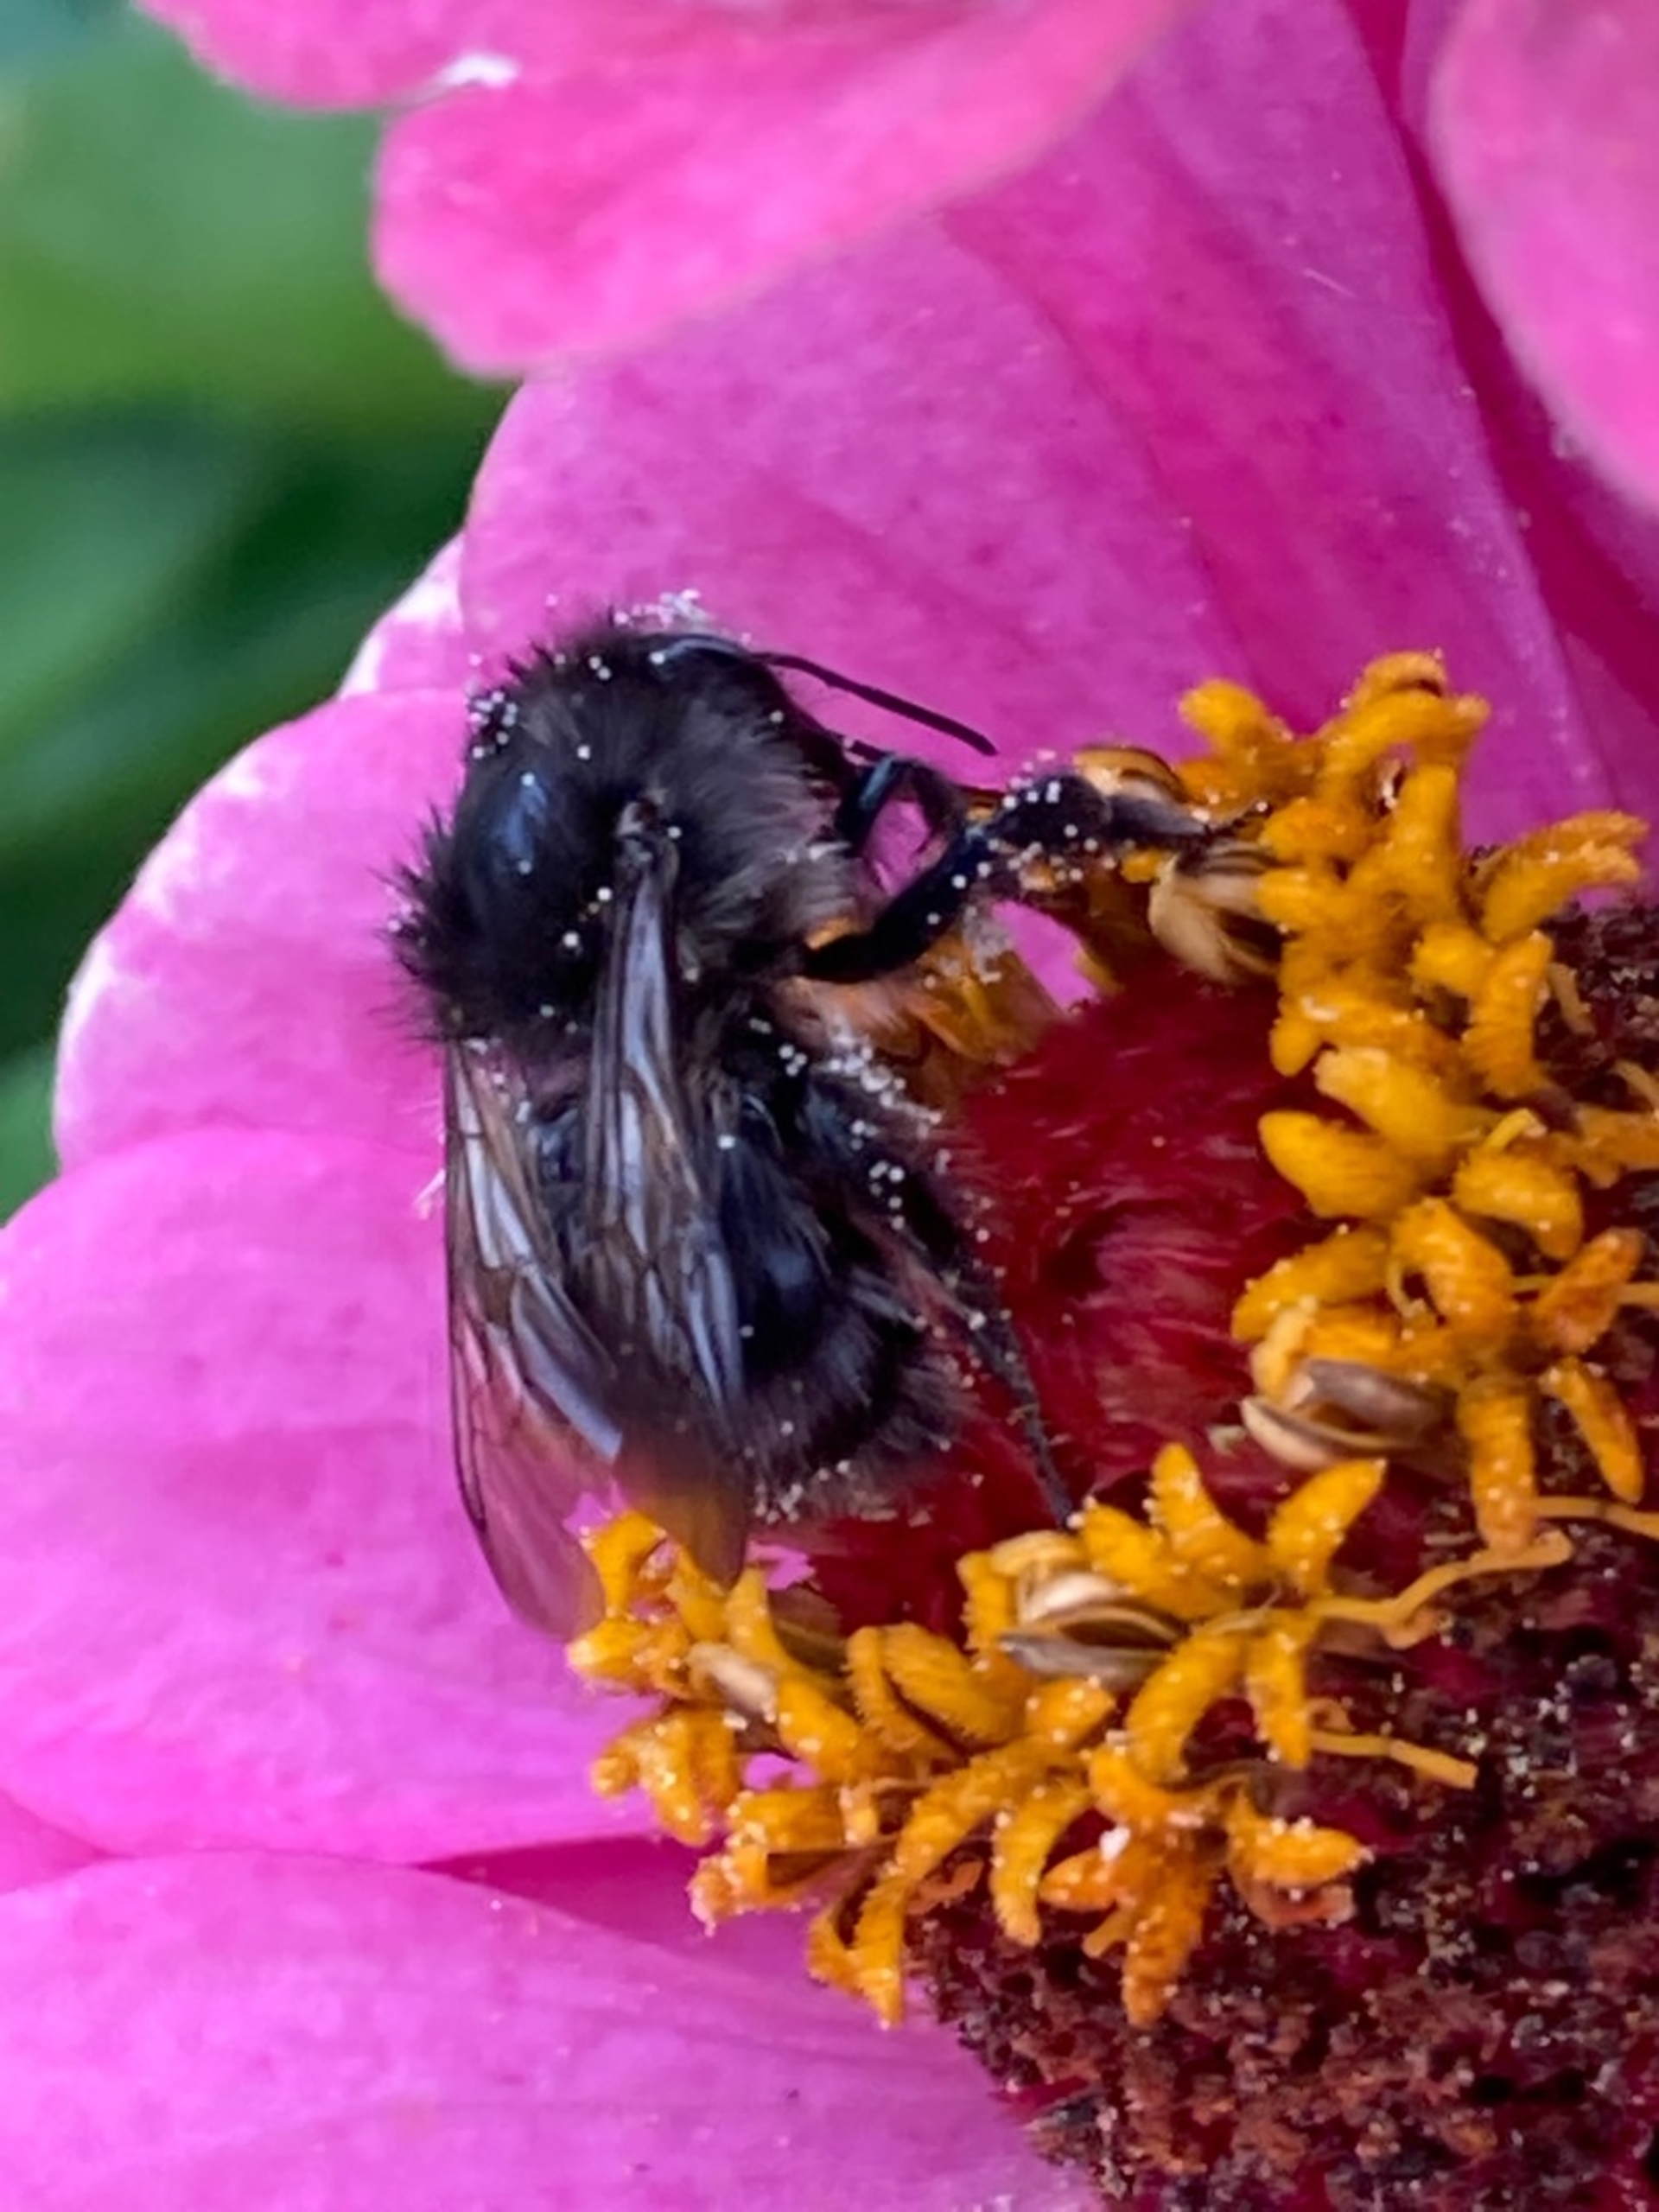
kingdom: Animalia
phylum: Arthropoda
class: Insecta
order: Hymenoptera
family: Apidae
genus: Bombus
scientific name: Bombus pascuorum
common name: Agerhumle
